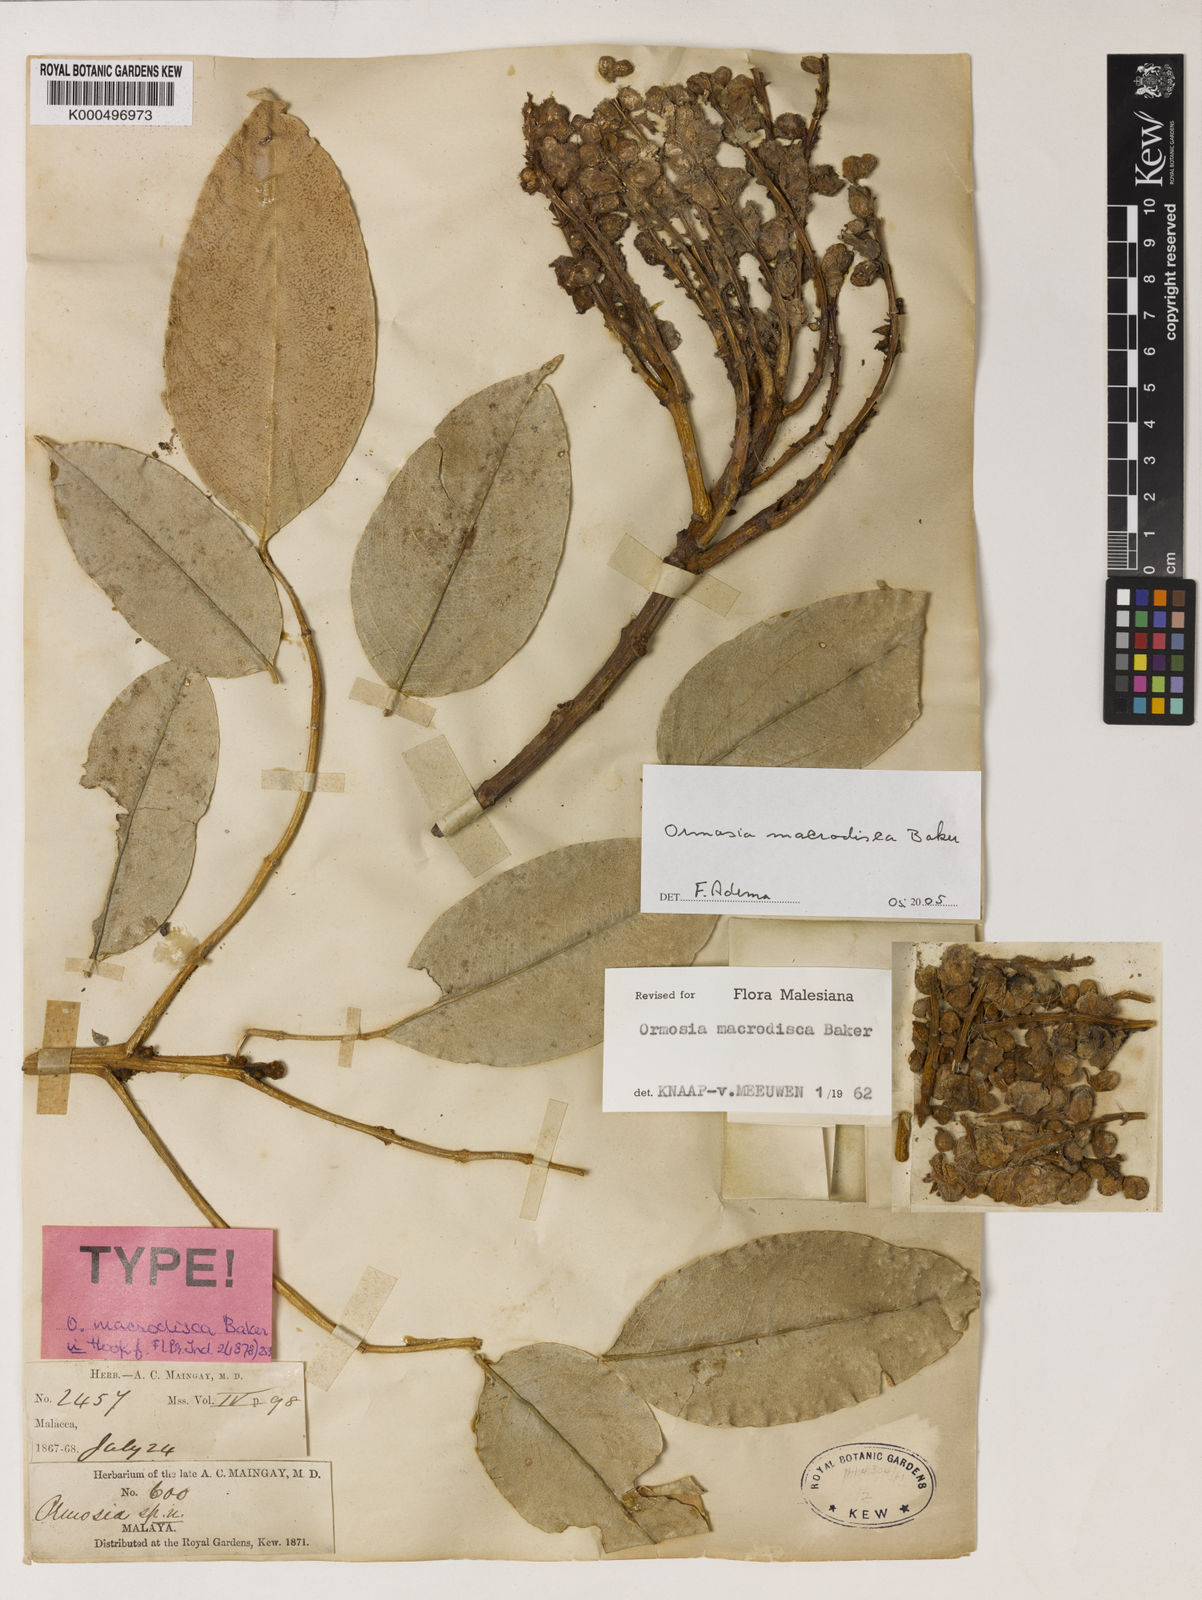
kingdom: Plantae
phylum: Tracheophyta
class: Magnoliopsida
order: Fabales
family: Fabaceae
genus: Ormosia
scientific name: Ormosia macrodisca
